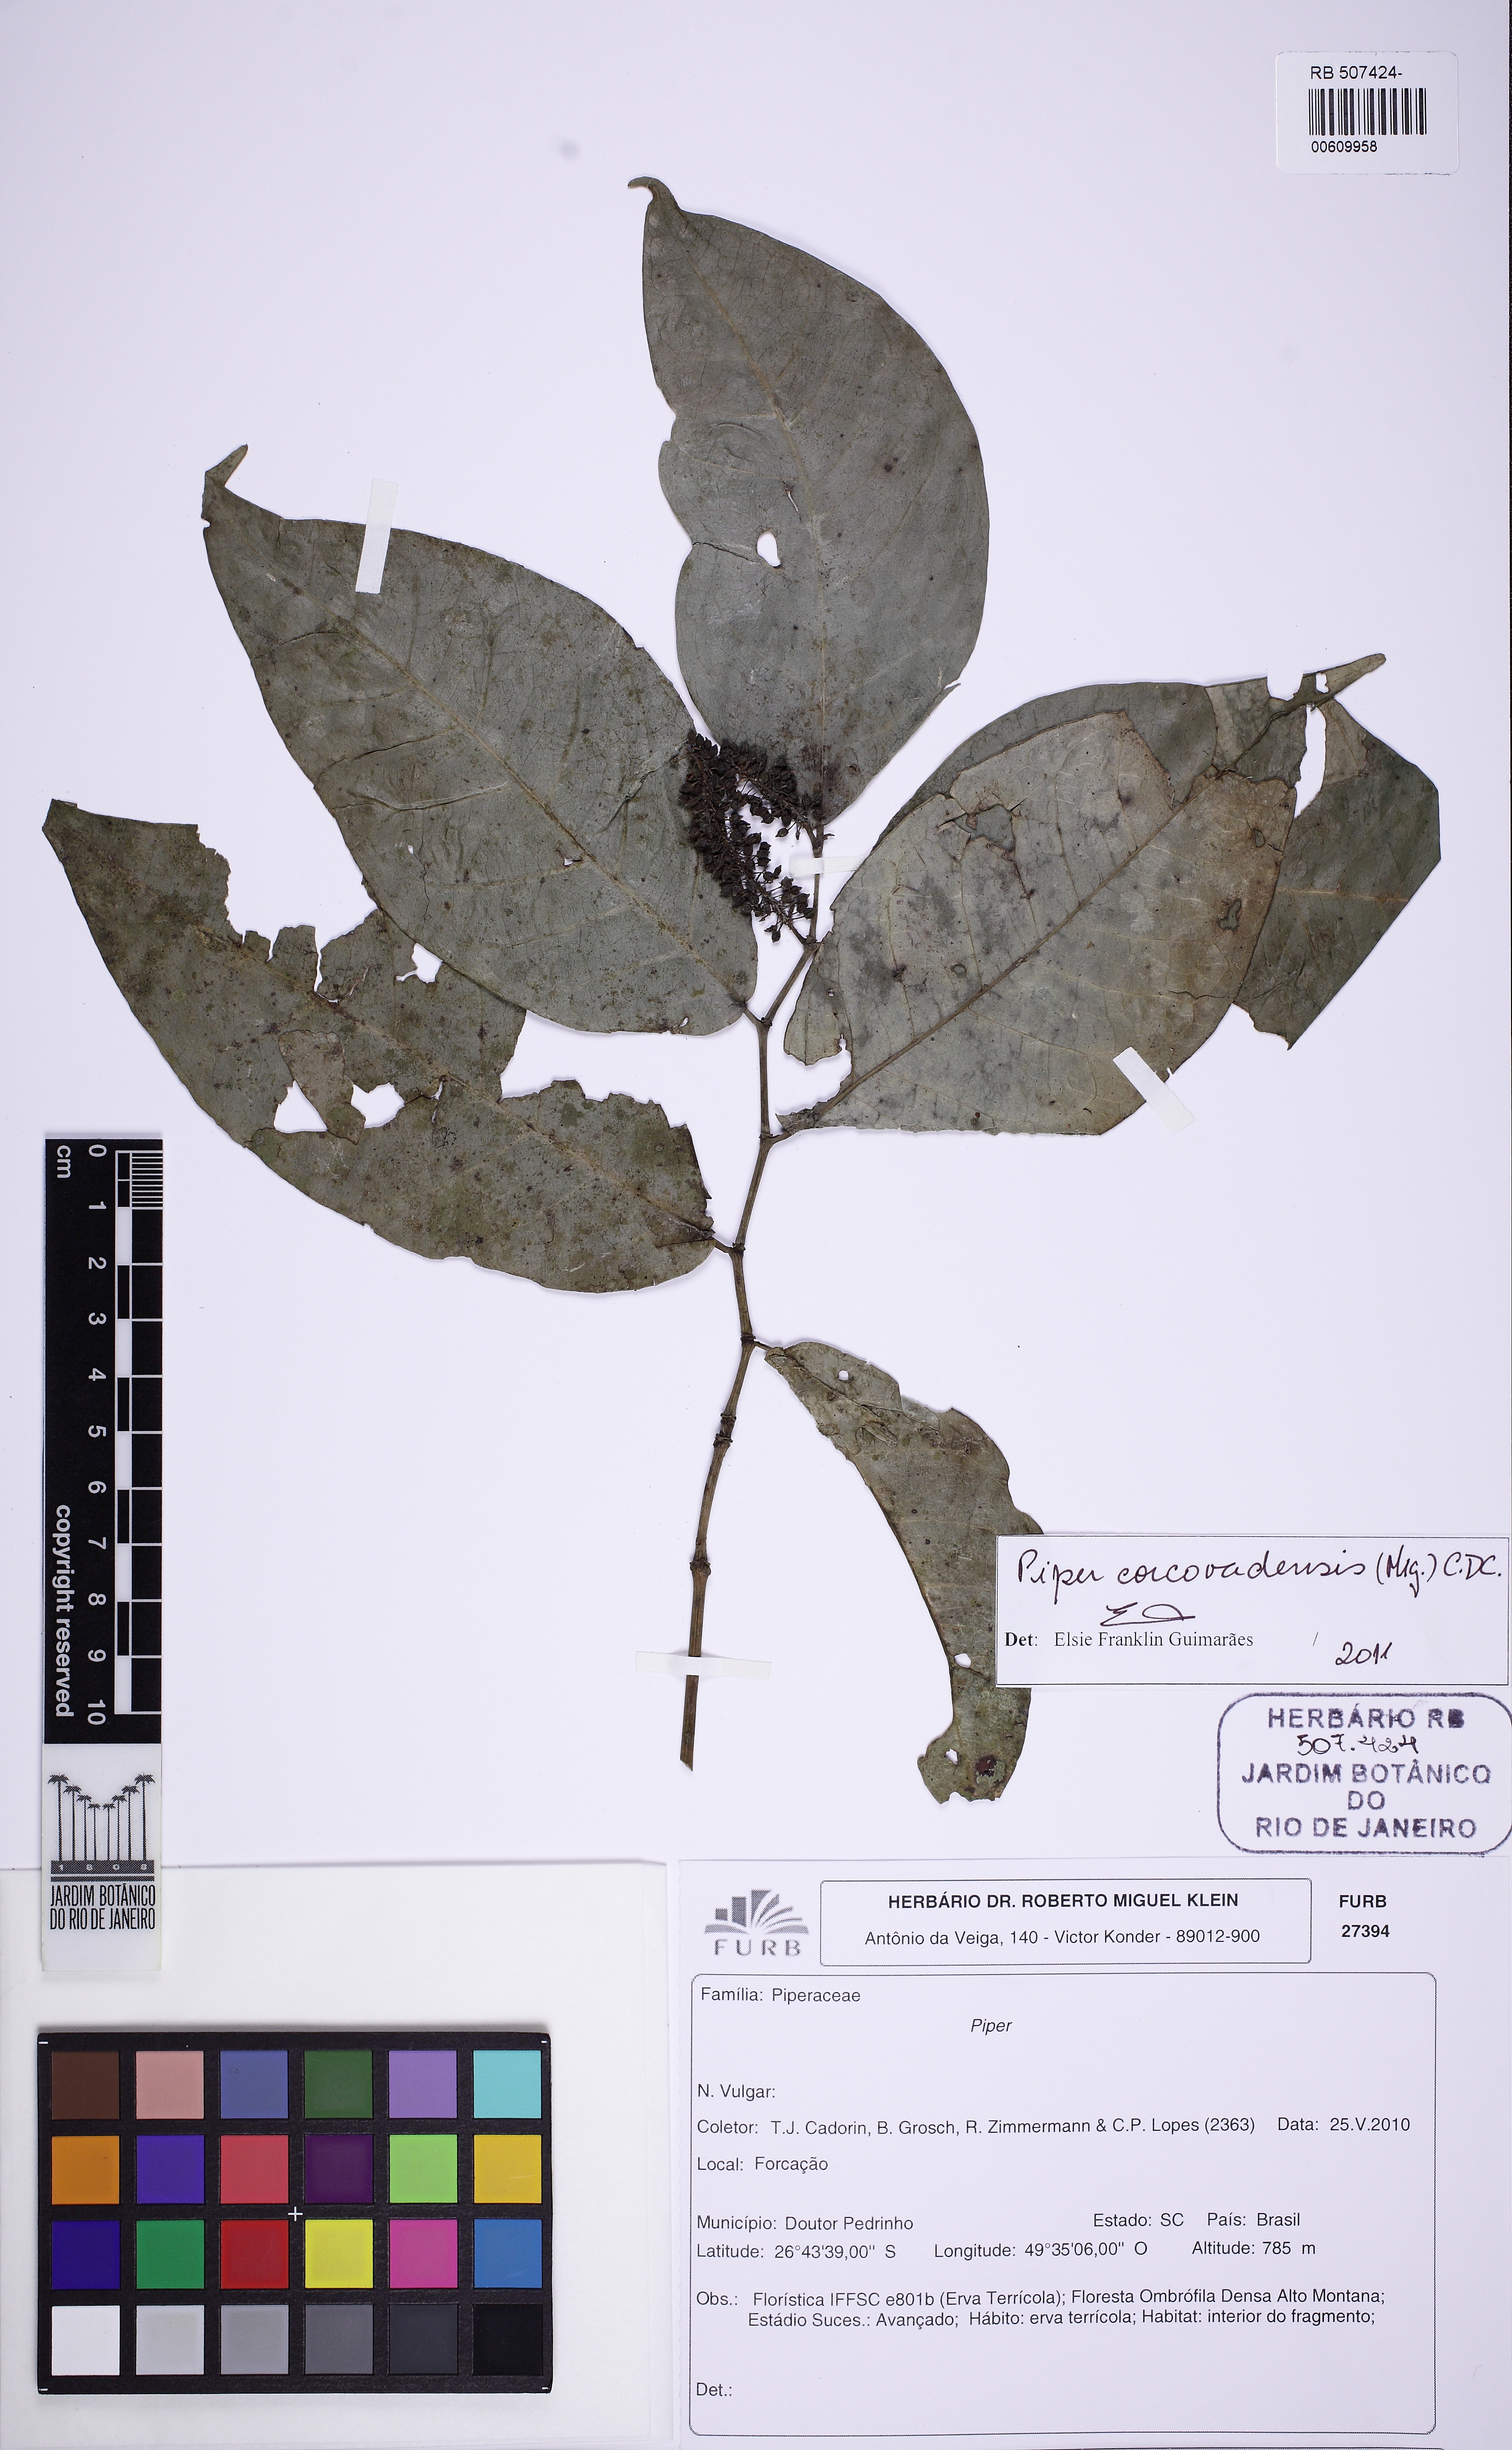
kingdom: Plantae
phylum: Tracheophyta
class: Magnoliopsida
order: Piperales
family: Piperaceae
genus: Piper
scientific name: Piper corcovadense
